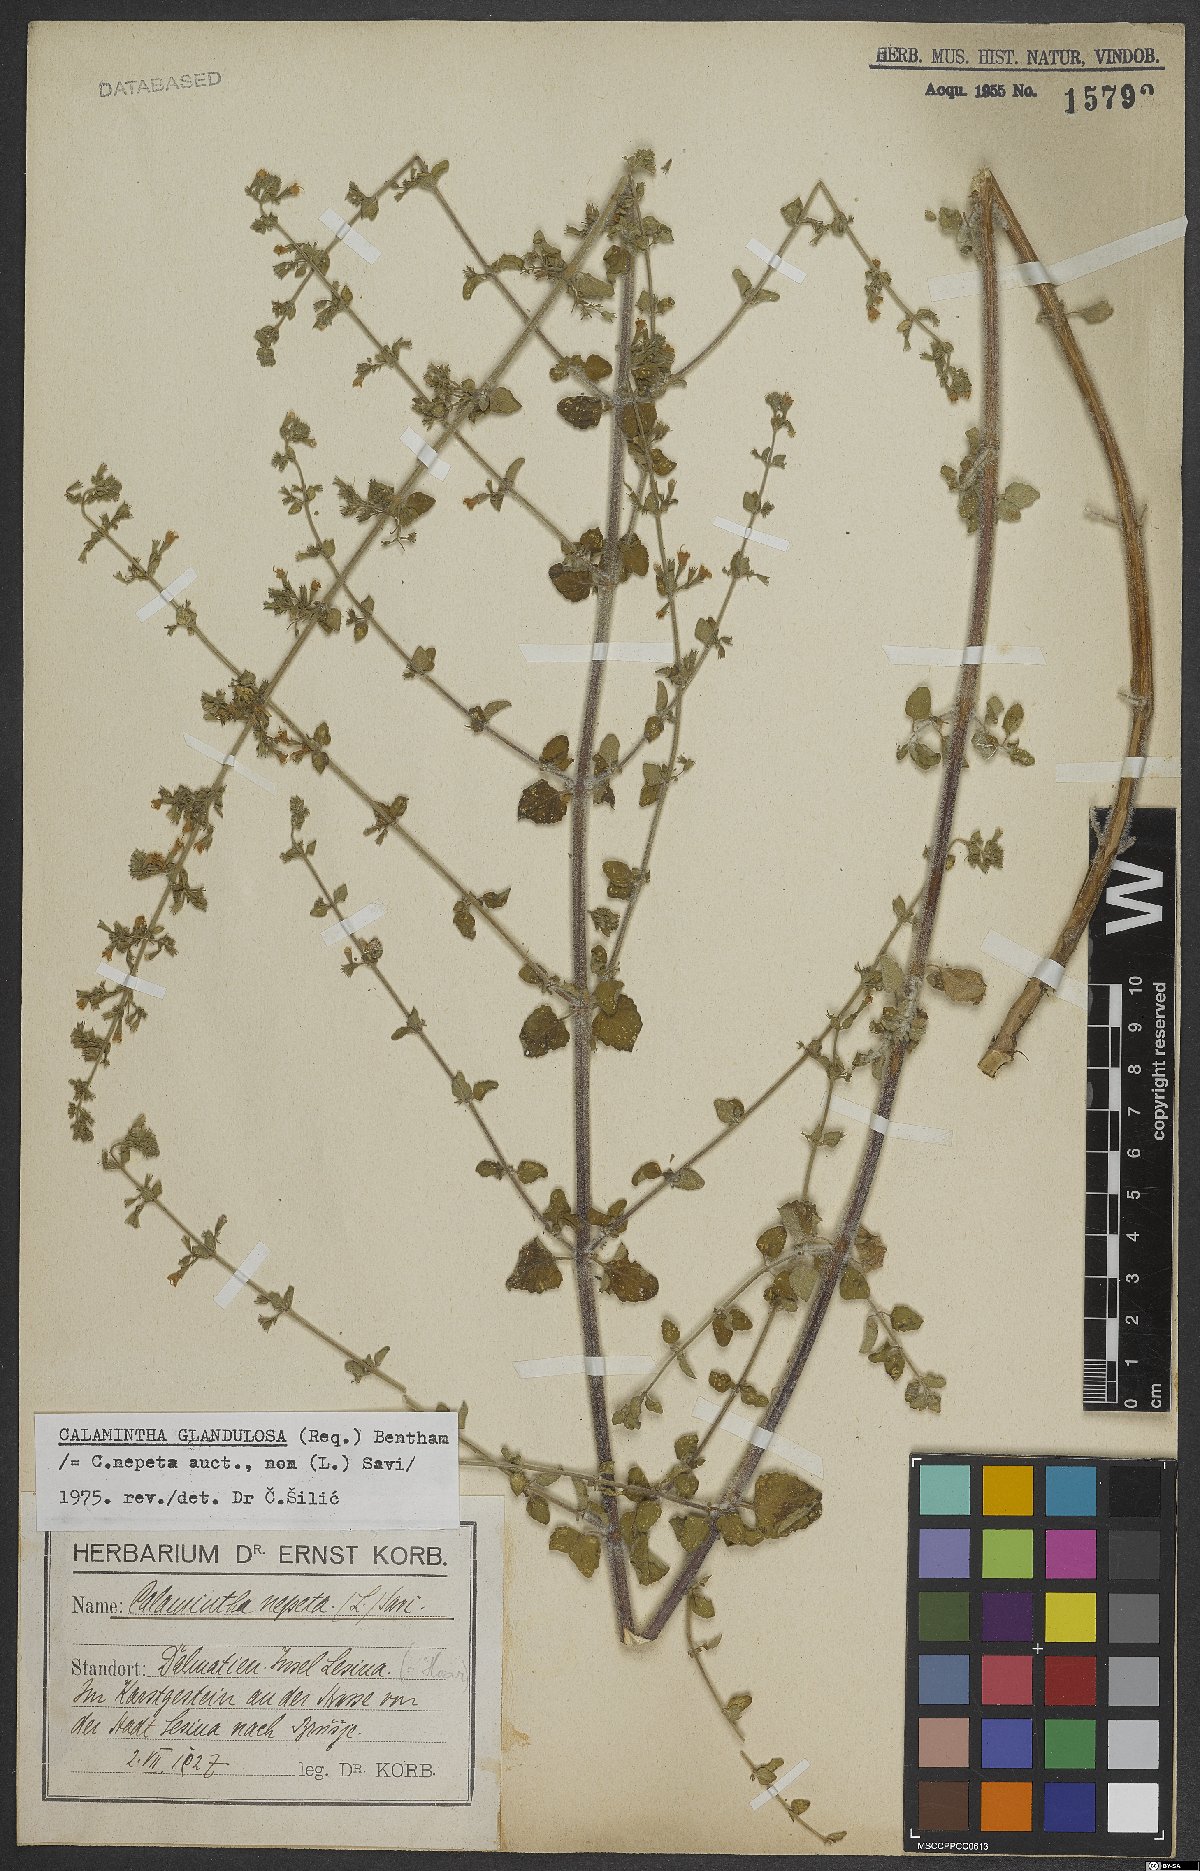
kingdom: Plantae
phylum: Tracheophyta
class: Magnoliopsida
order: Lamiales
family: Lamiaceae
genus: Clinopodium
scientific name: Clinopodium nepeta
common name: Lesser calamint
